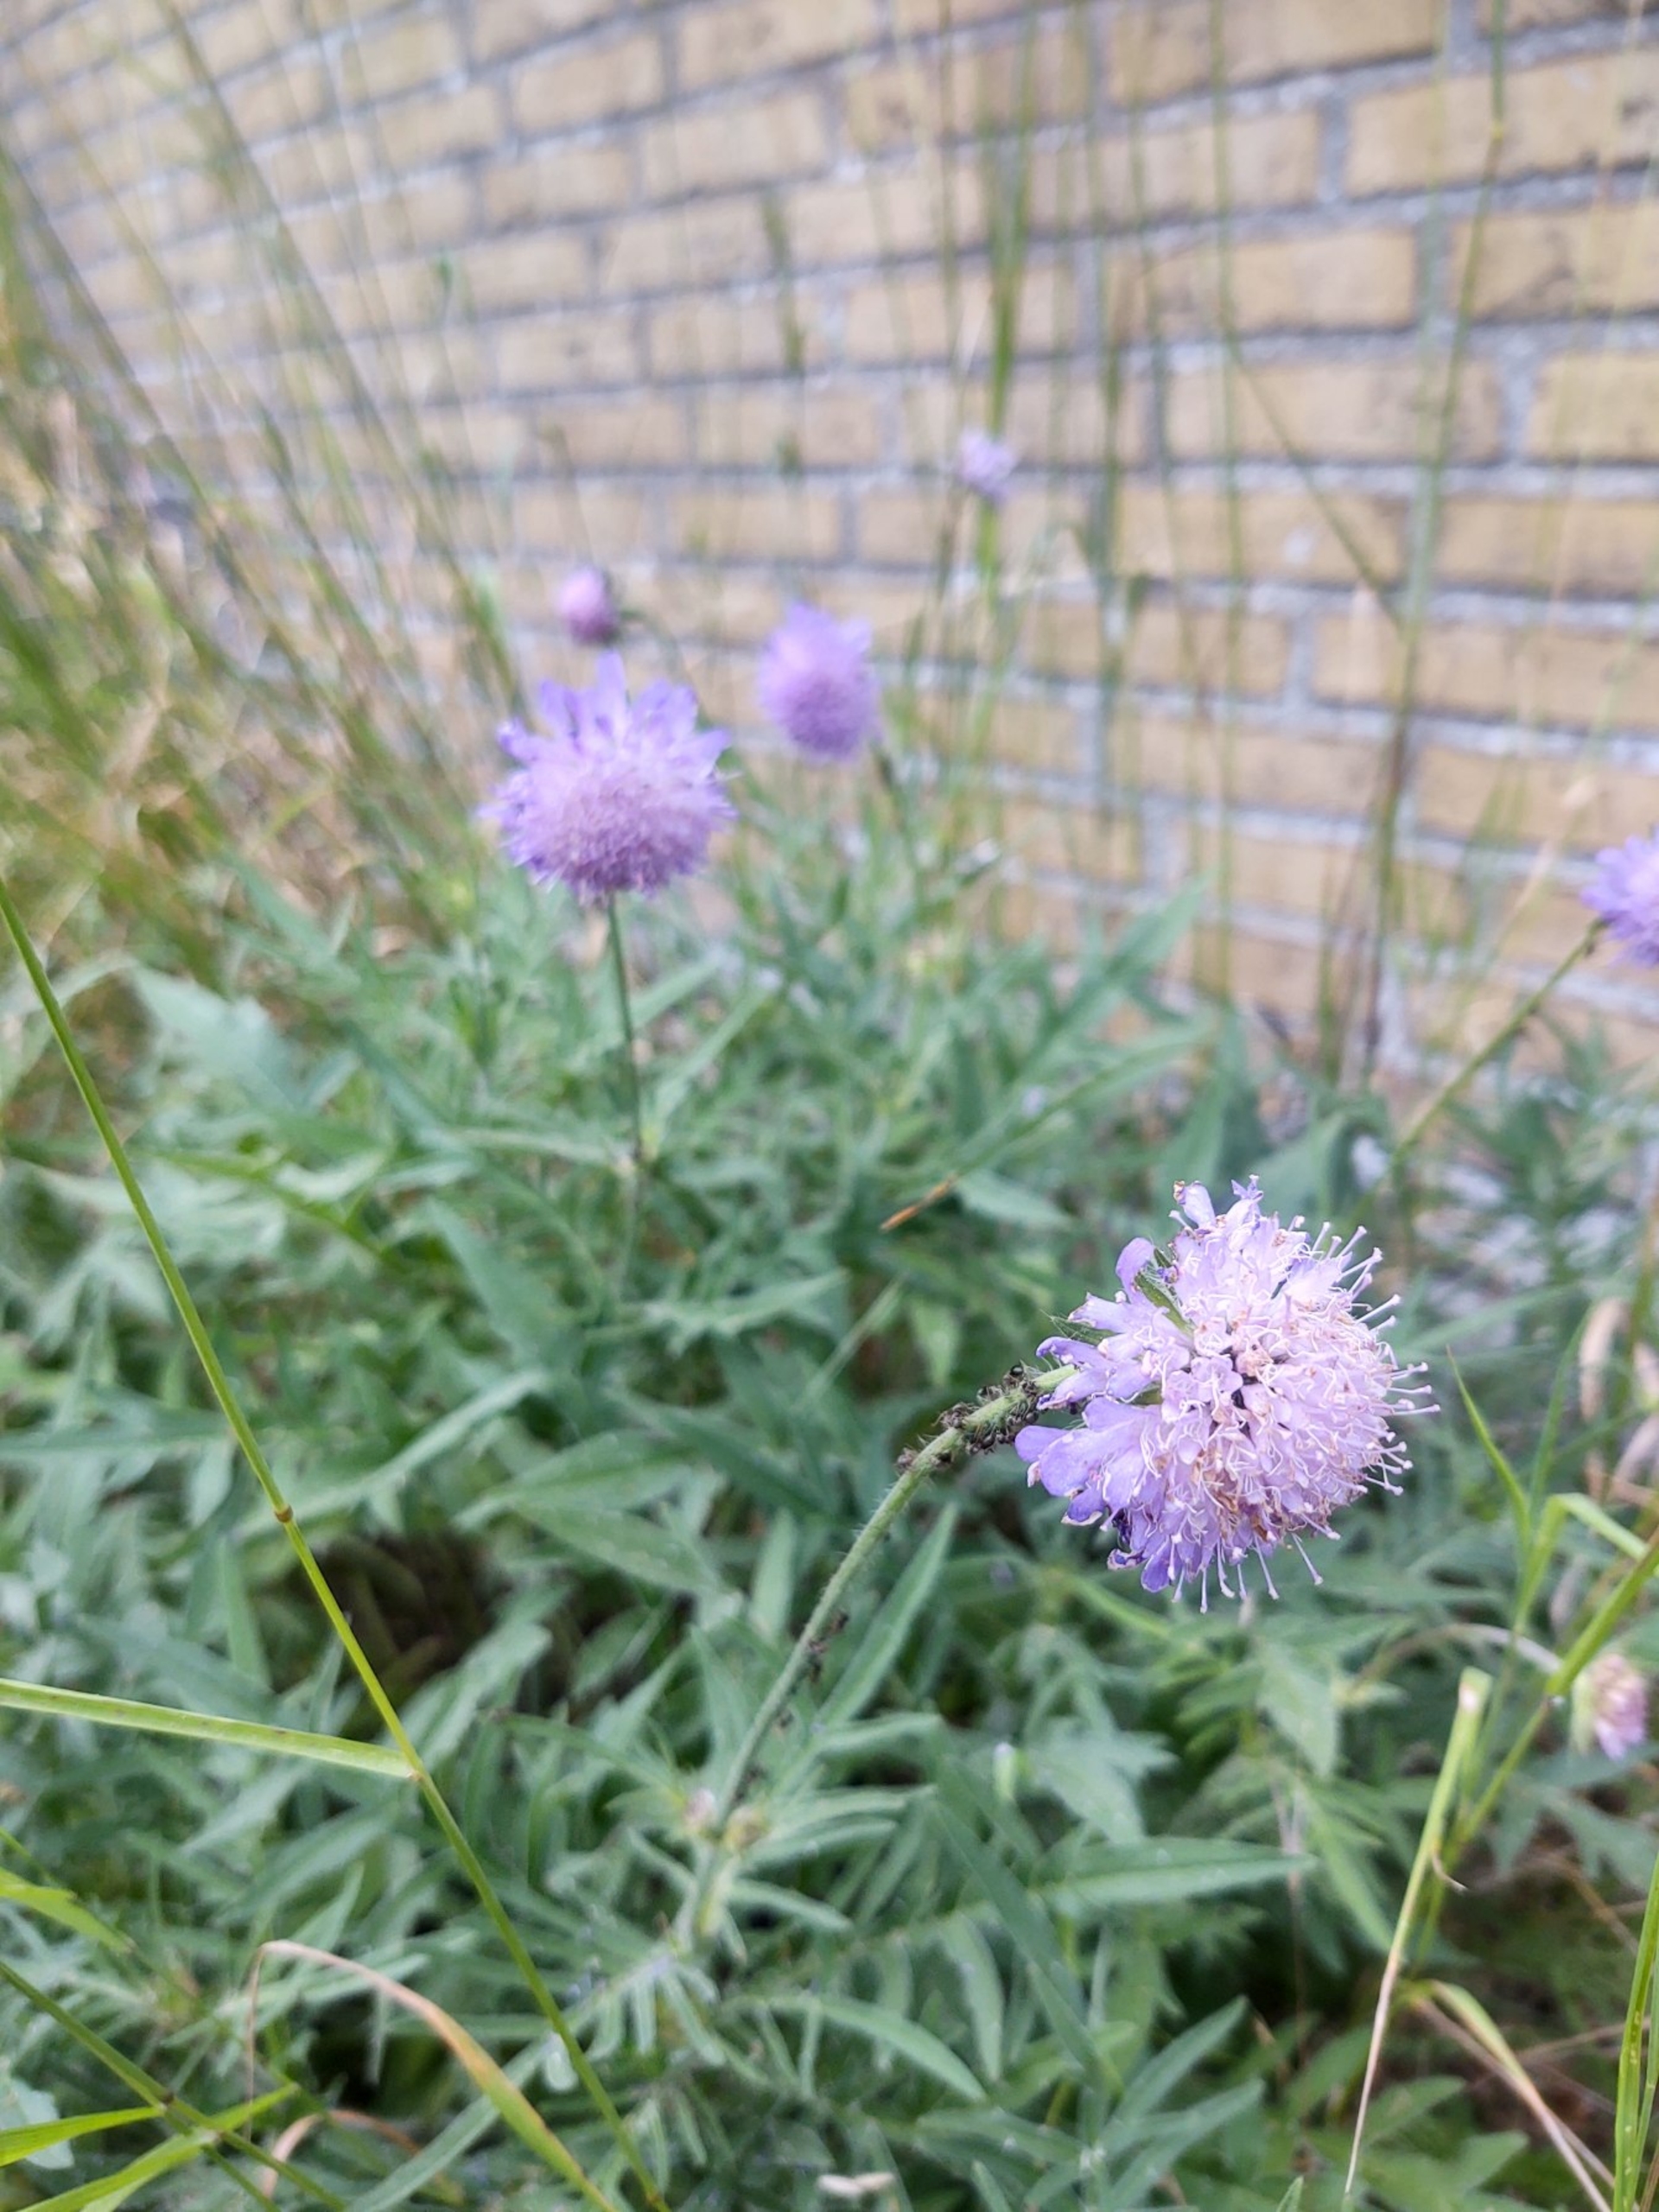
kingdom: Plantae
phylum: Tracheophyta
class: Magnoliopsida
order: Dipsacales
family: Caprifoliaceae
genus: Knautia
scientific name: Knautia arvensis
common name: Blåhat
